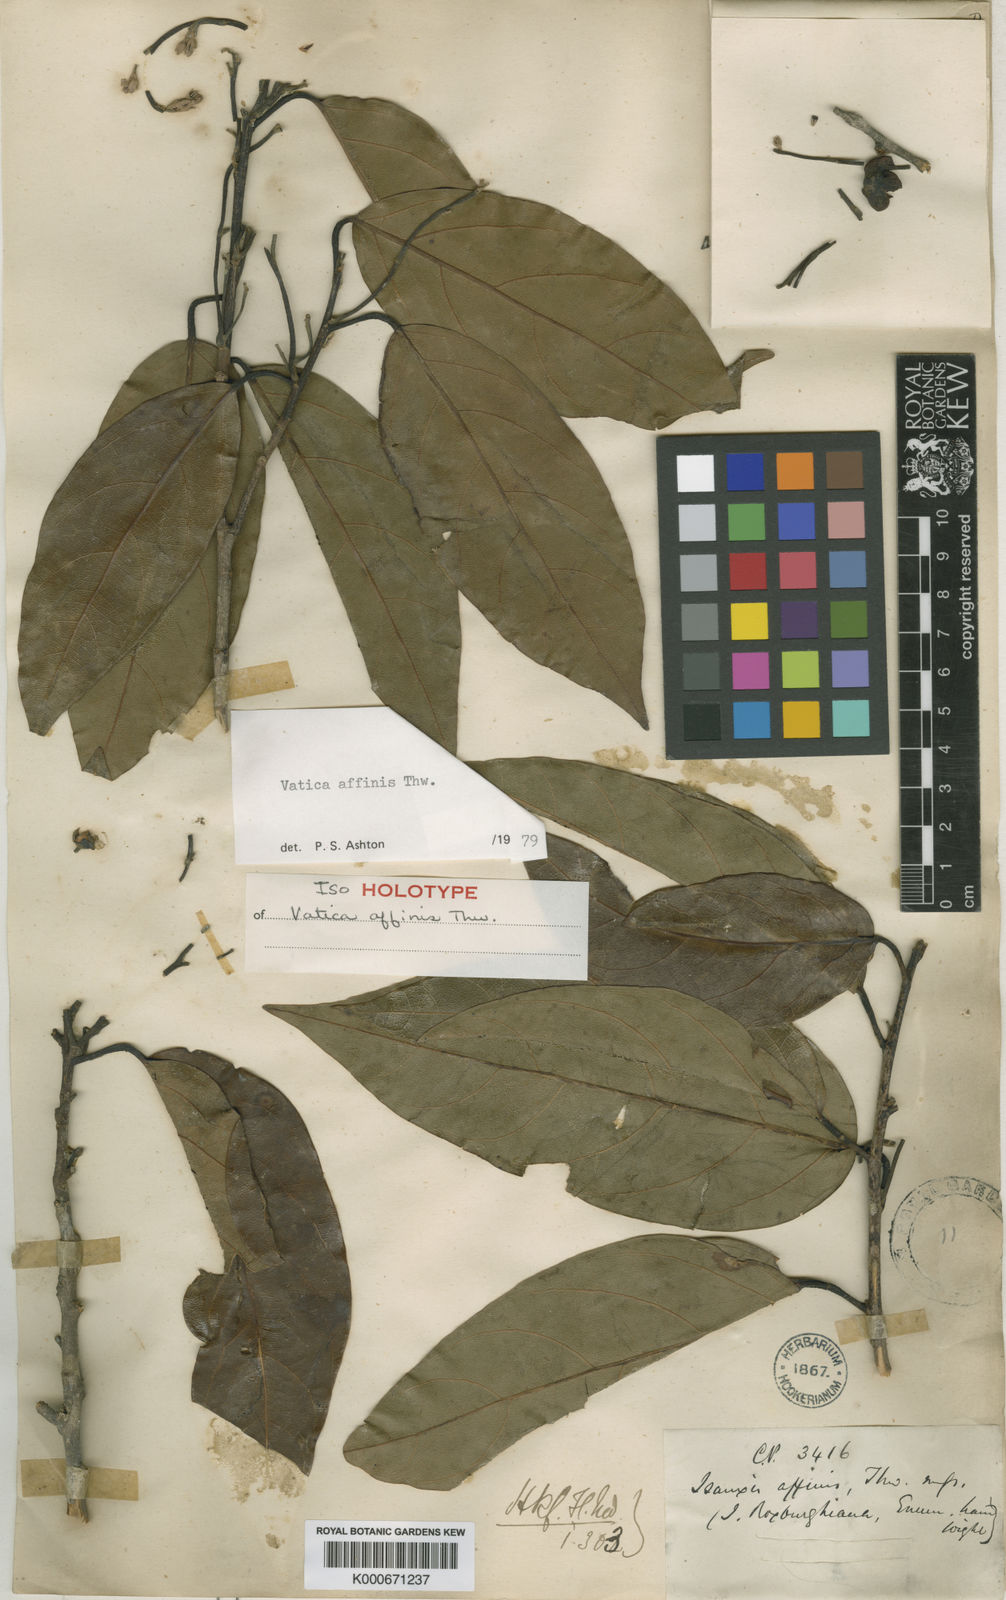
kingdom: Plantae
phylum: Tracheophyta
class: Magnoliopsida
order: Malvales
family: Dipterocarpaceae
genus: Vatica
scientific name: Vatica affinis
